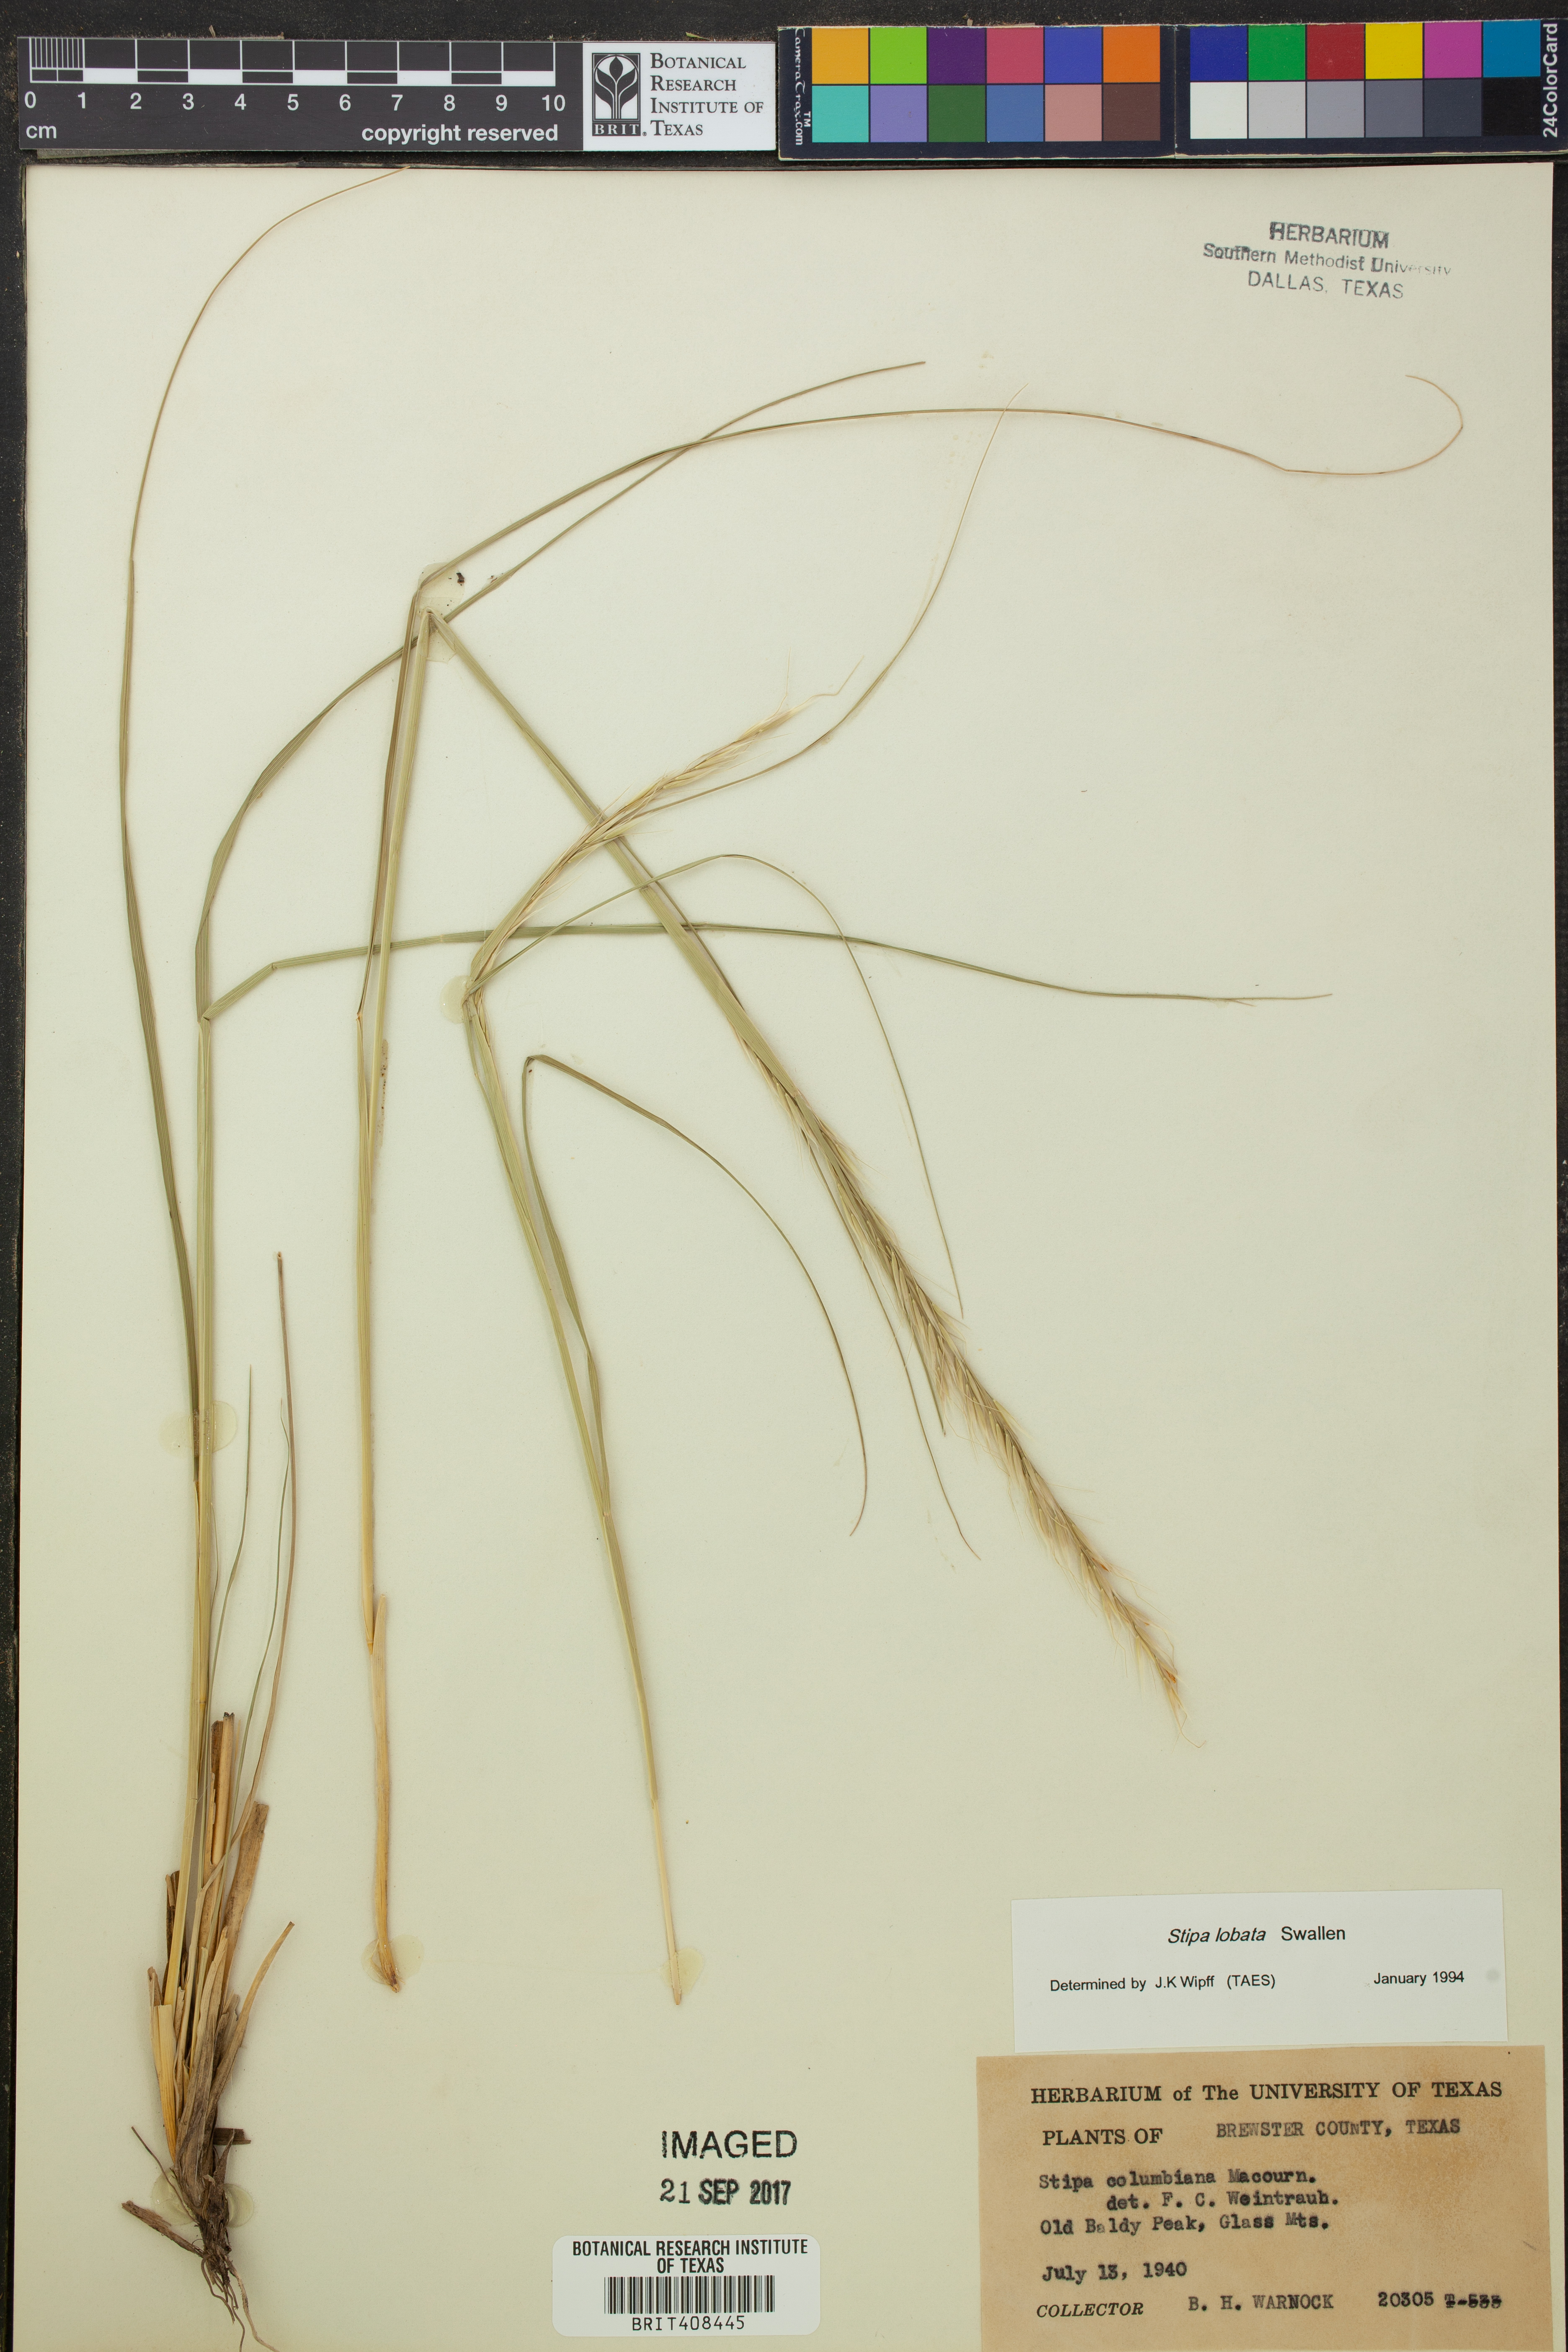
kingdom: Plantae
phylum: Tracheophyta
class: Liliopsida
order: Poales
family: Poaceae
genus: Eriocoma
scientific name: Eriocoma lobata
